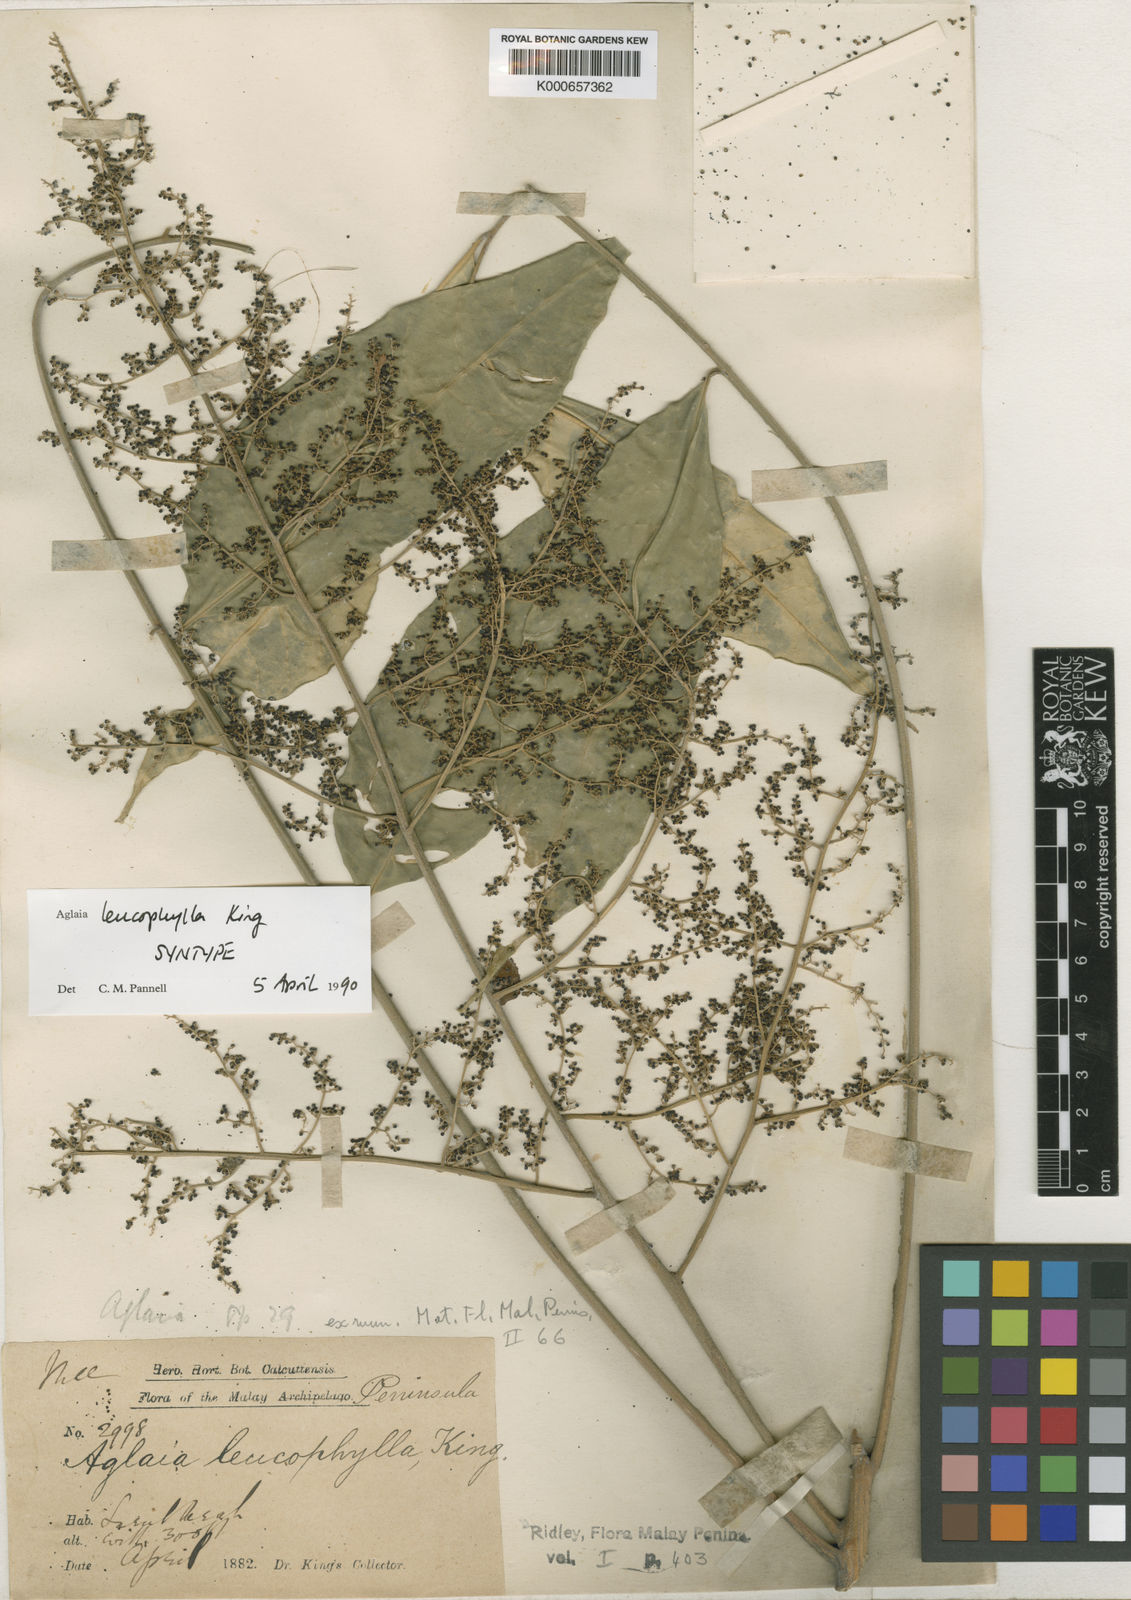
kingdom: Plantae
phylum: Tracheophyta
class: Magnoliopsida
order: Sapindales
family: Meliaceae
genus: Aglaia
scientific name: Aglaia leucophylla
